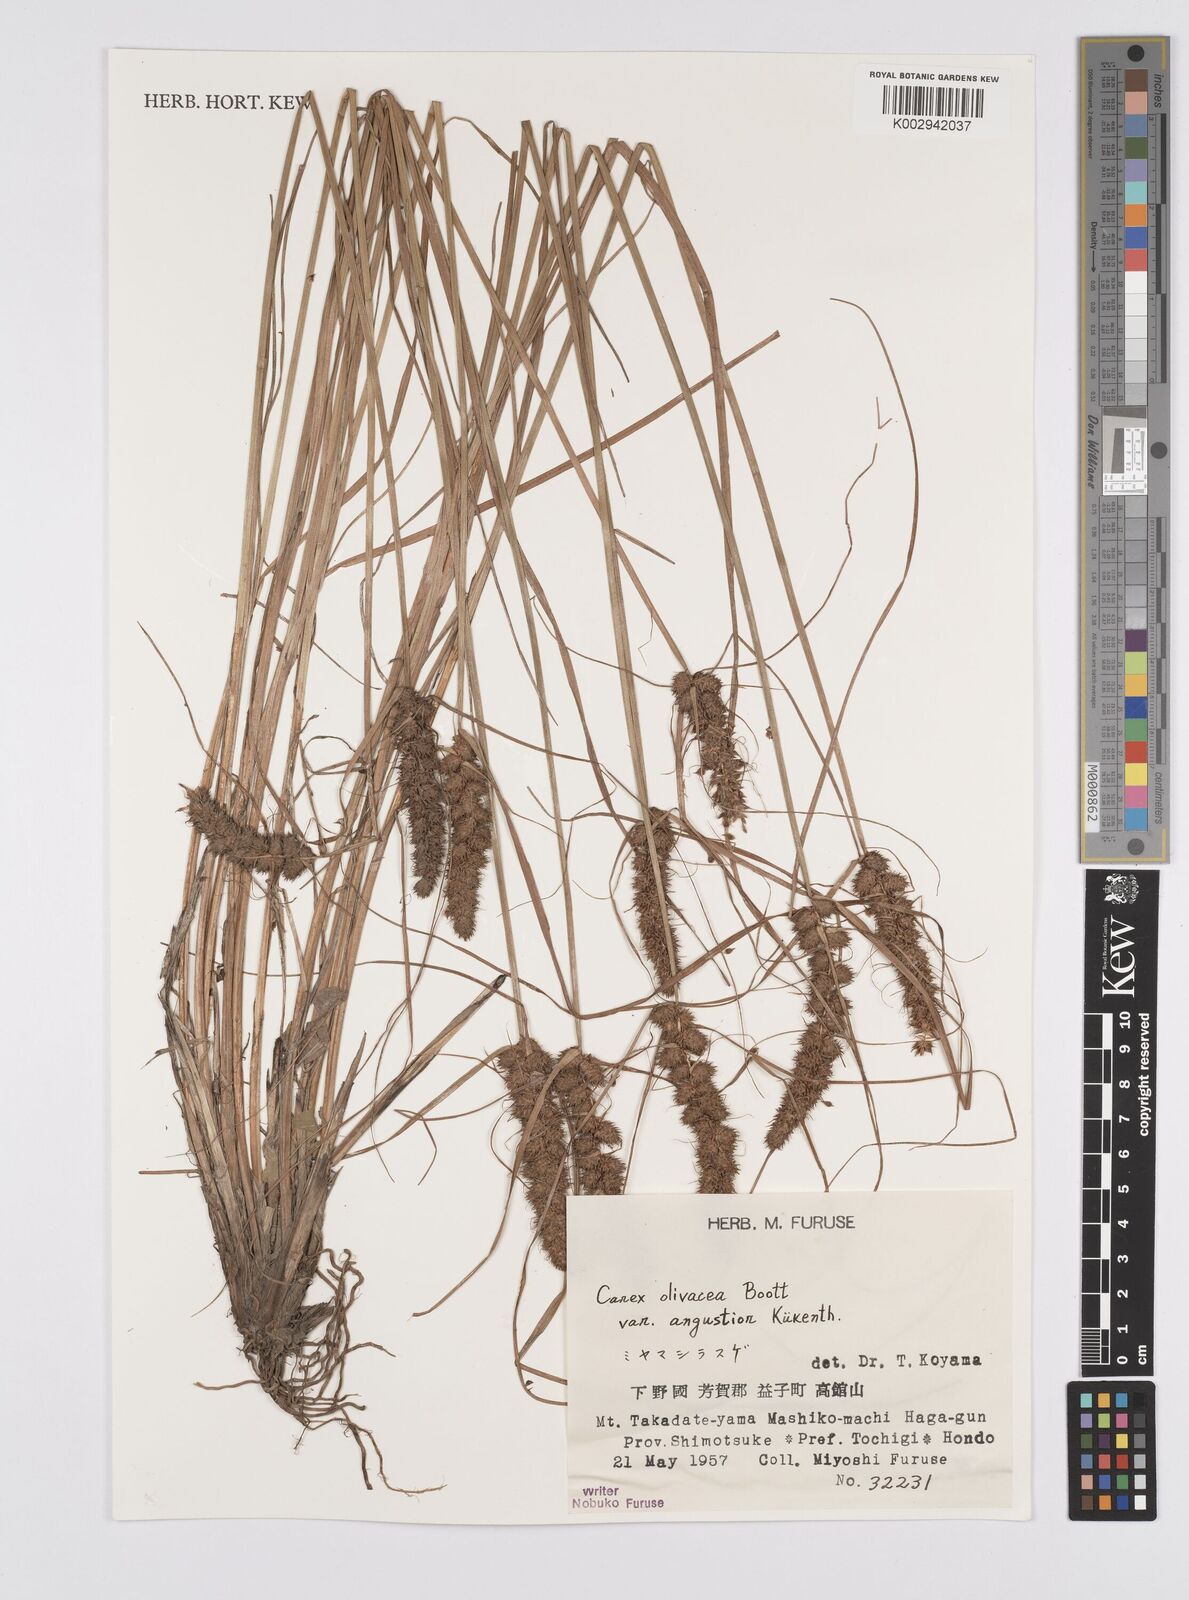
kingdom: Plantae
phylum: Tracheophyta
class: Liliopsida
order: Poales
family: Cyperaceae
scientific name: Cyperaceae
